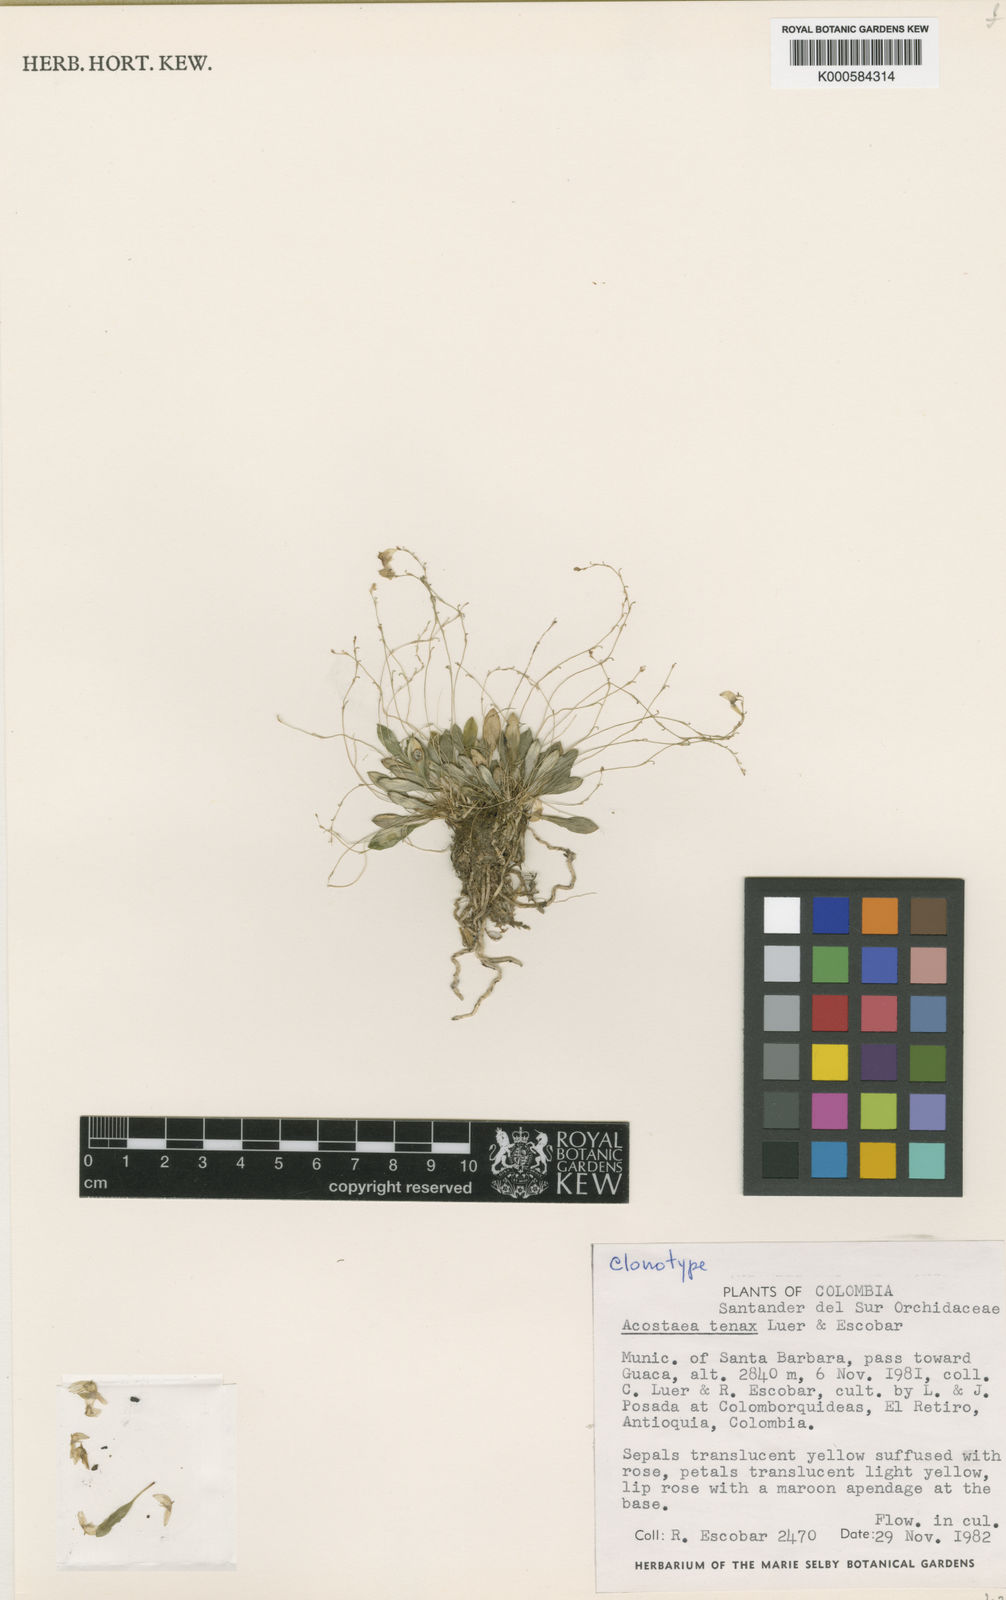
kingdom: Plantae
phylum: Tracheophyta
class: Liliopsida
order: Asparagales
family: Orchidaceae
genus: Specklinia
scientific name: Specklinia
